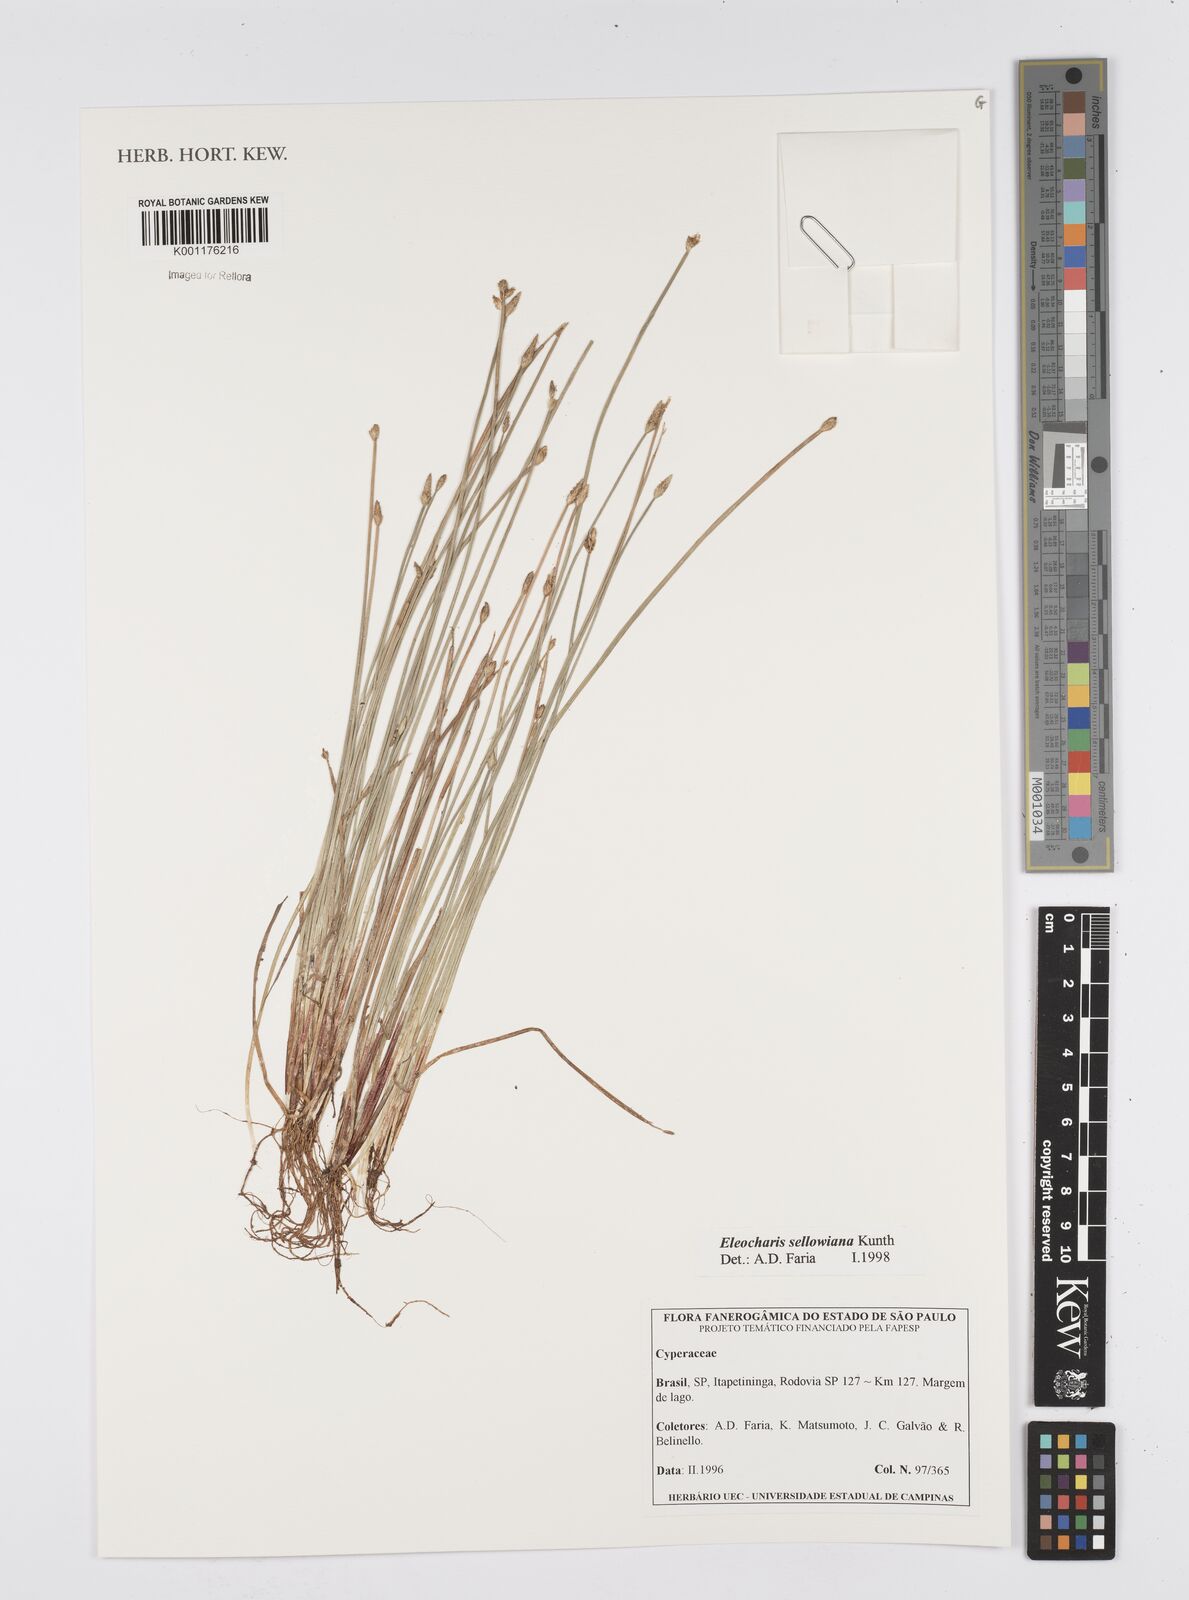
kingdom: Plantae
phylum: Tracheophyta
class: Liliopsida
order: Poales
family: Cyperaceae
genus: Eleocharis
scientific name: Eleocharis sellowiana
